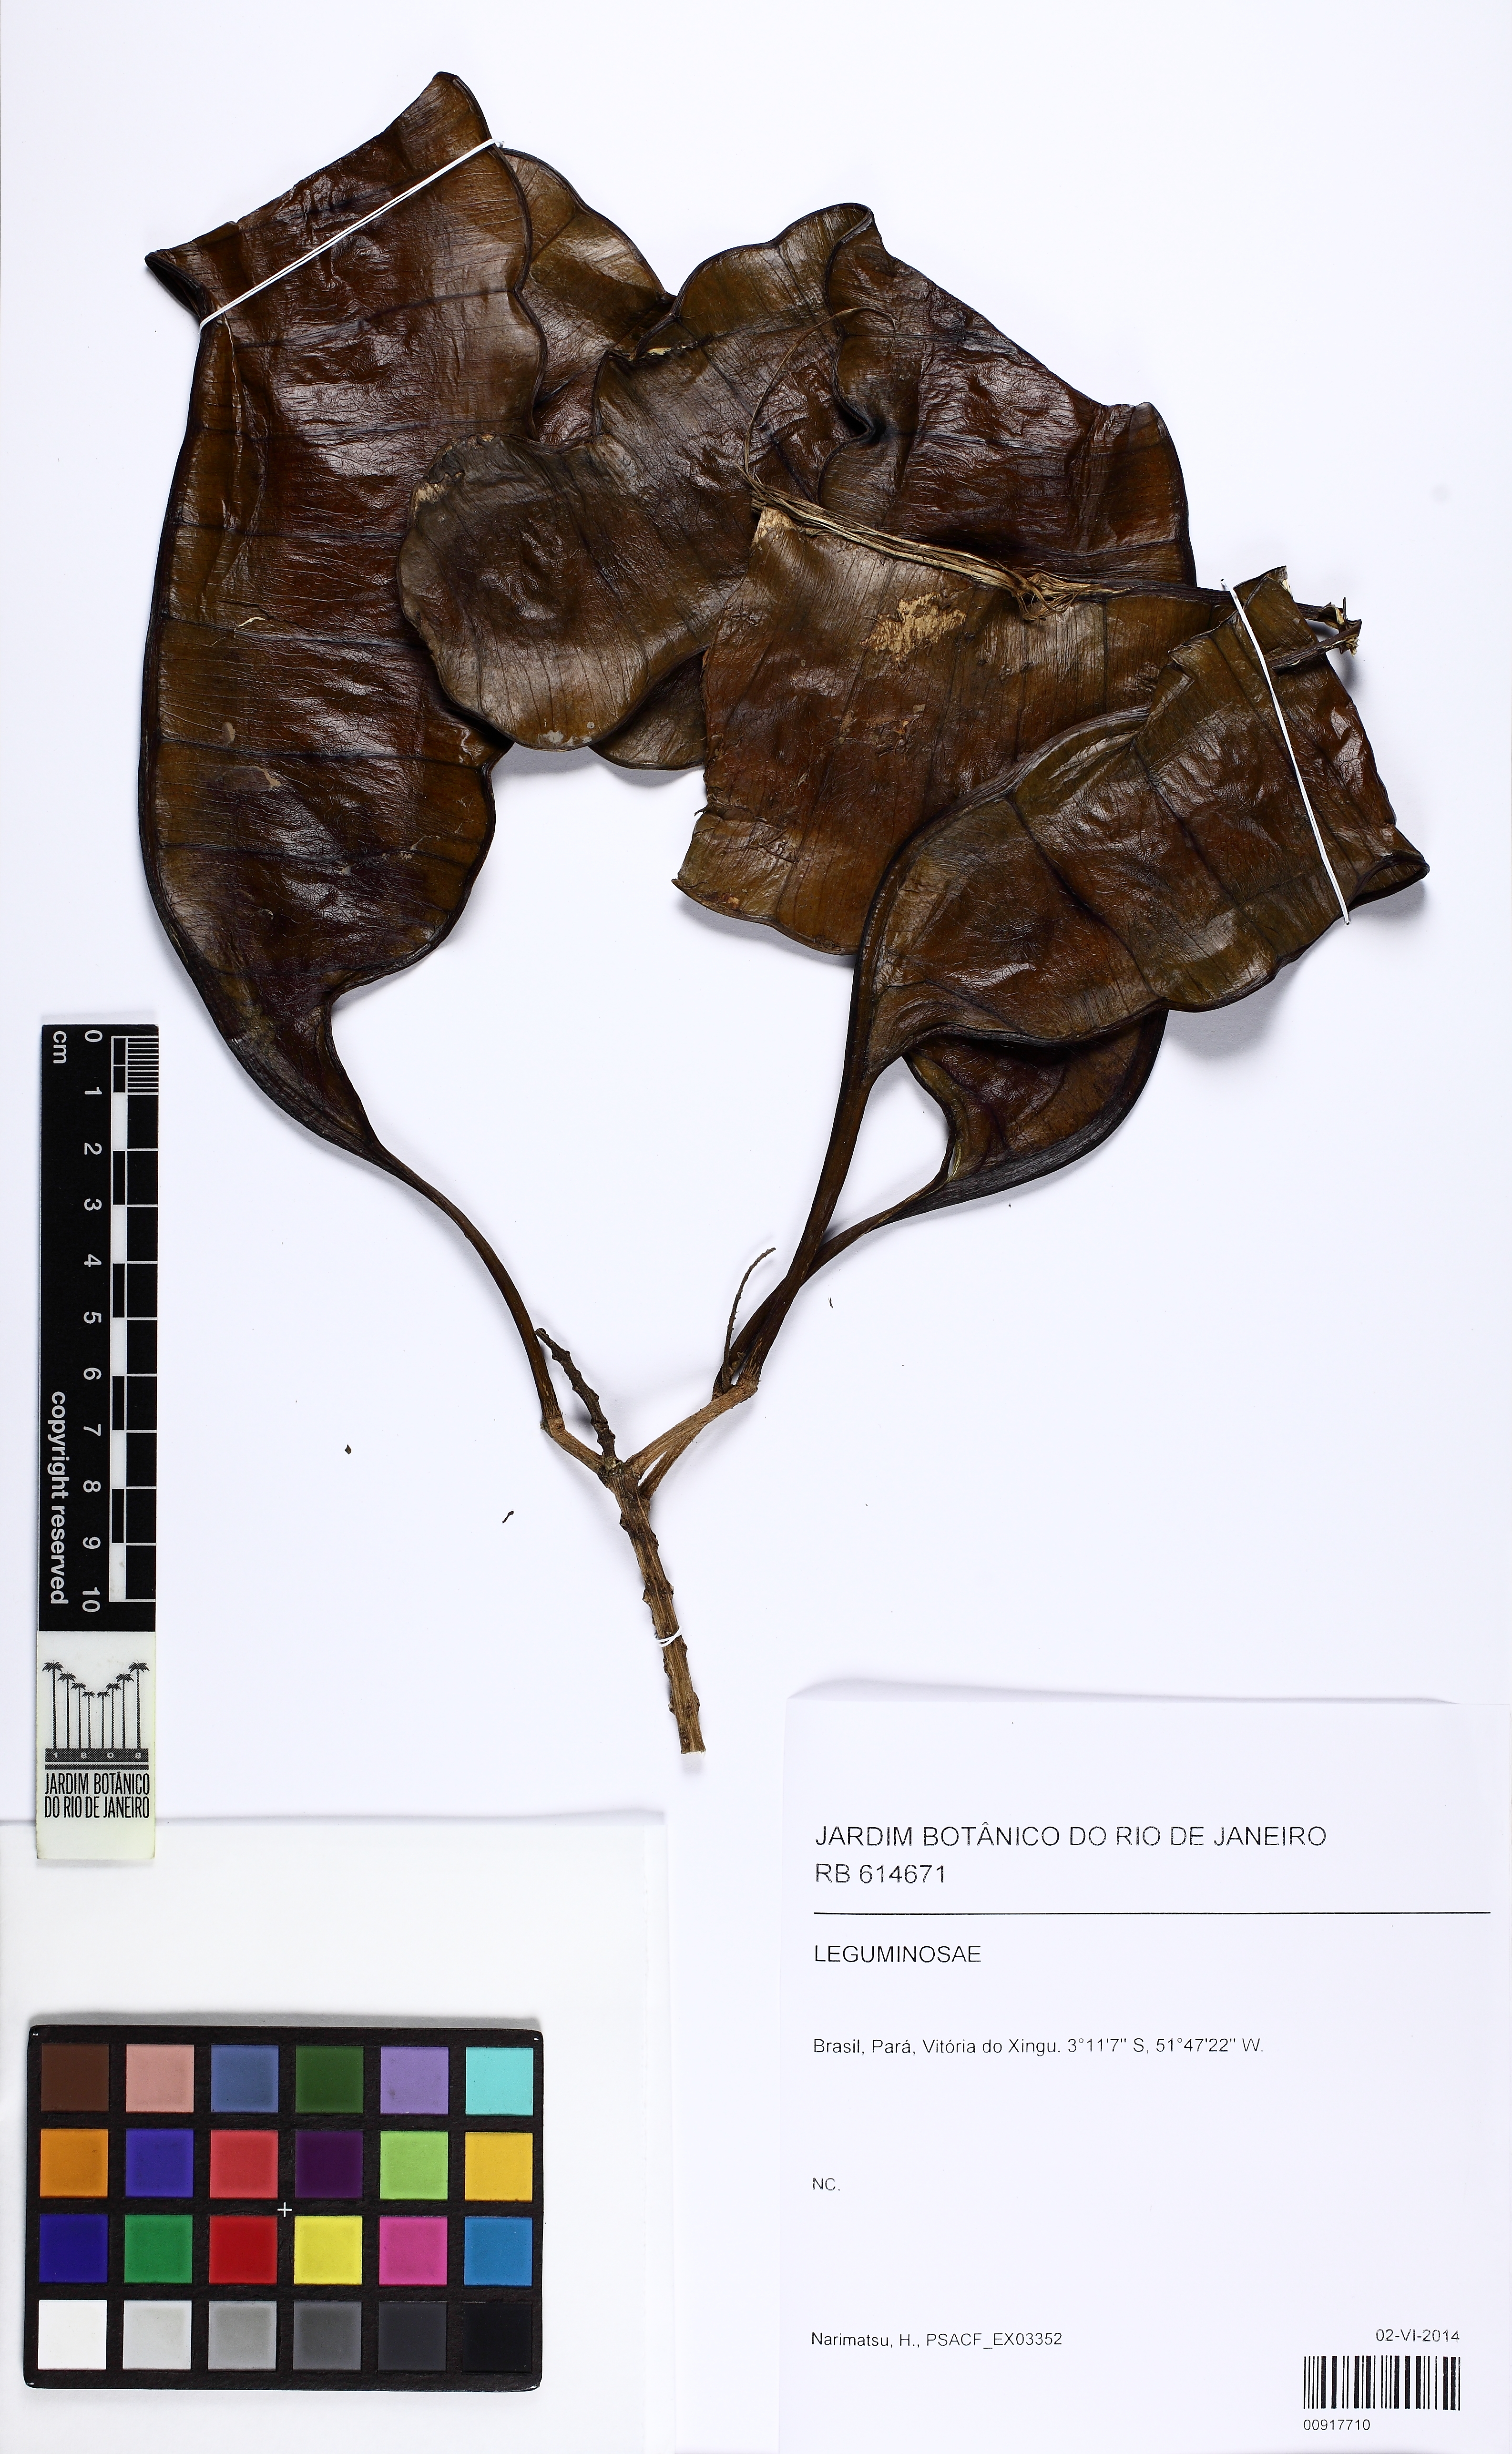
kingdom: Plantae
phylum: Tracheophyta
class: Magnoliopsida
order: Fabales
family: Fabaceae
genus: Entada
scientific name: Entada
